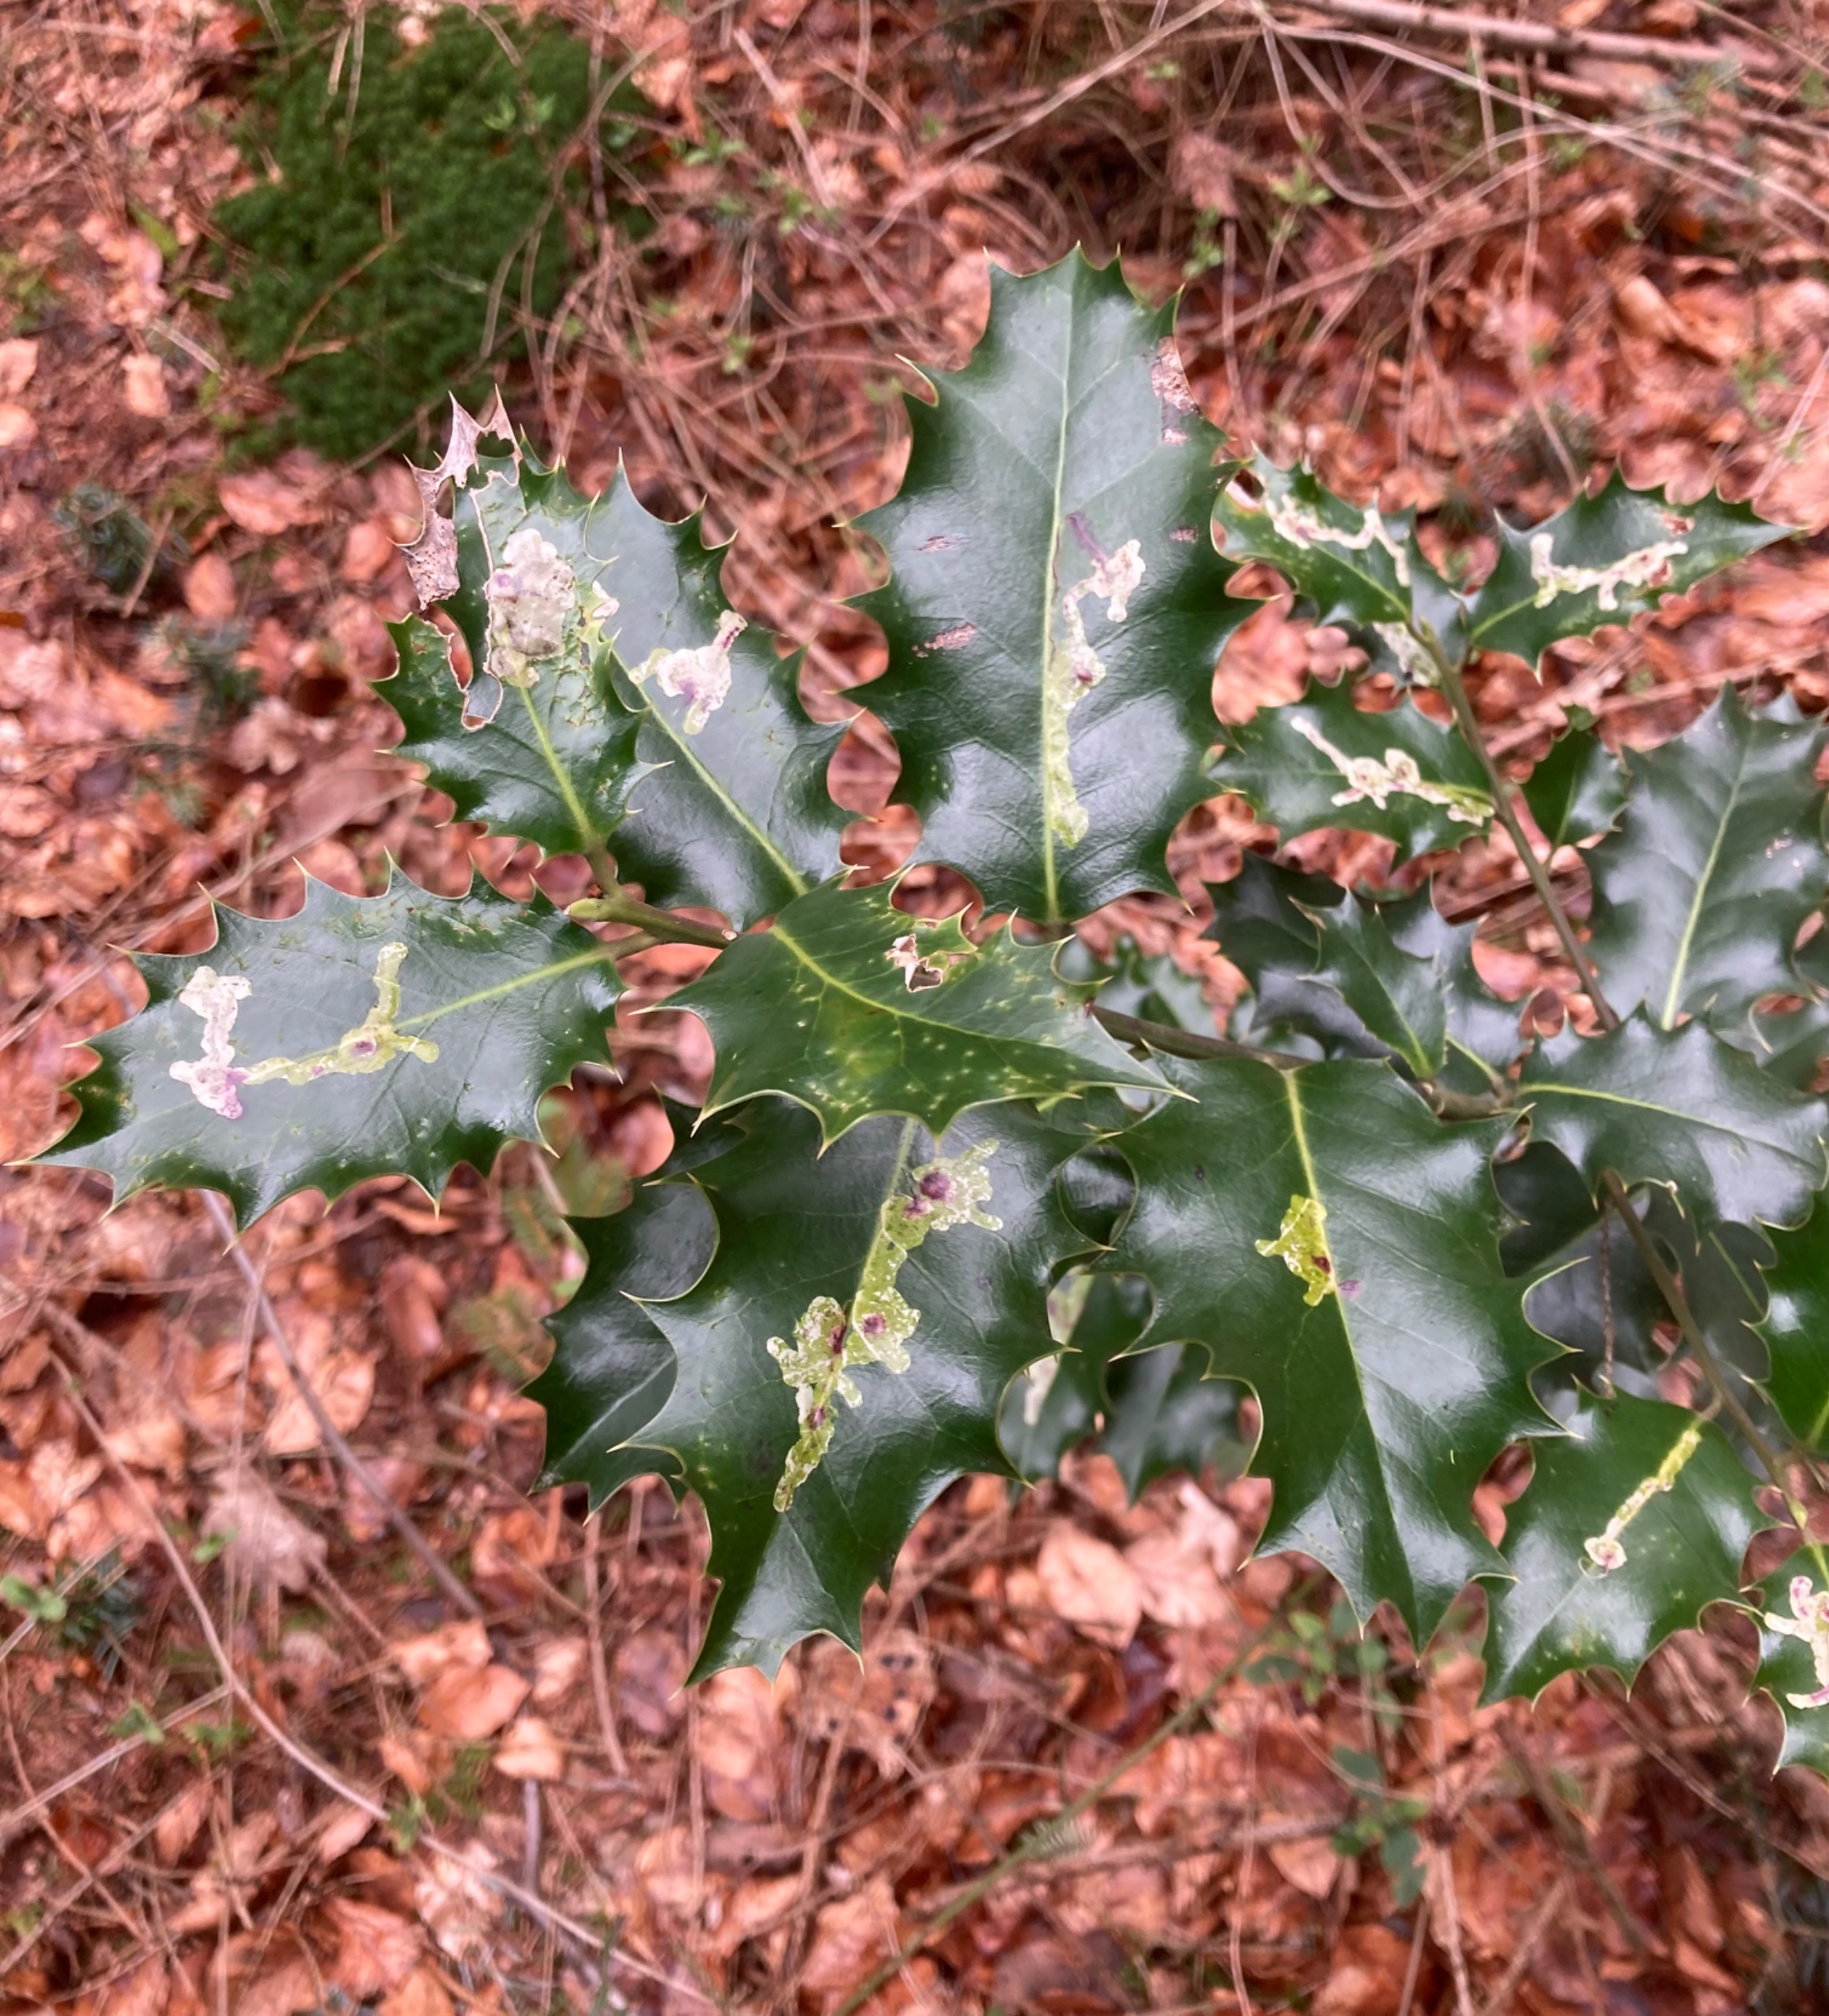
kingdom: Animalia
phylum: Arthropoda
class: Insecta
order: Diptera
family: Agromyzidae
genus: Phytomyza
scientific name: Phytomyza ilicis
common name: Kristtornminérflue
